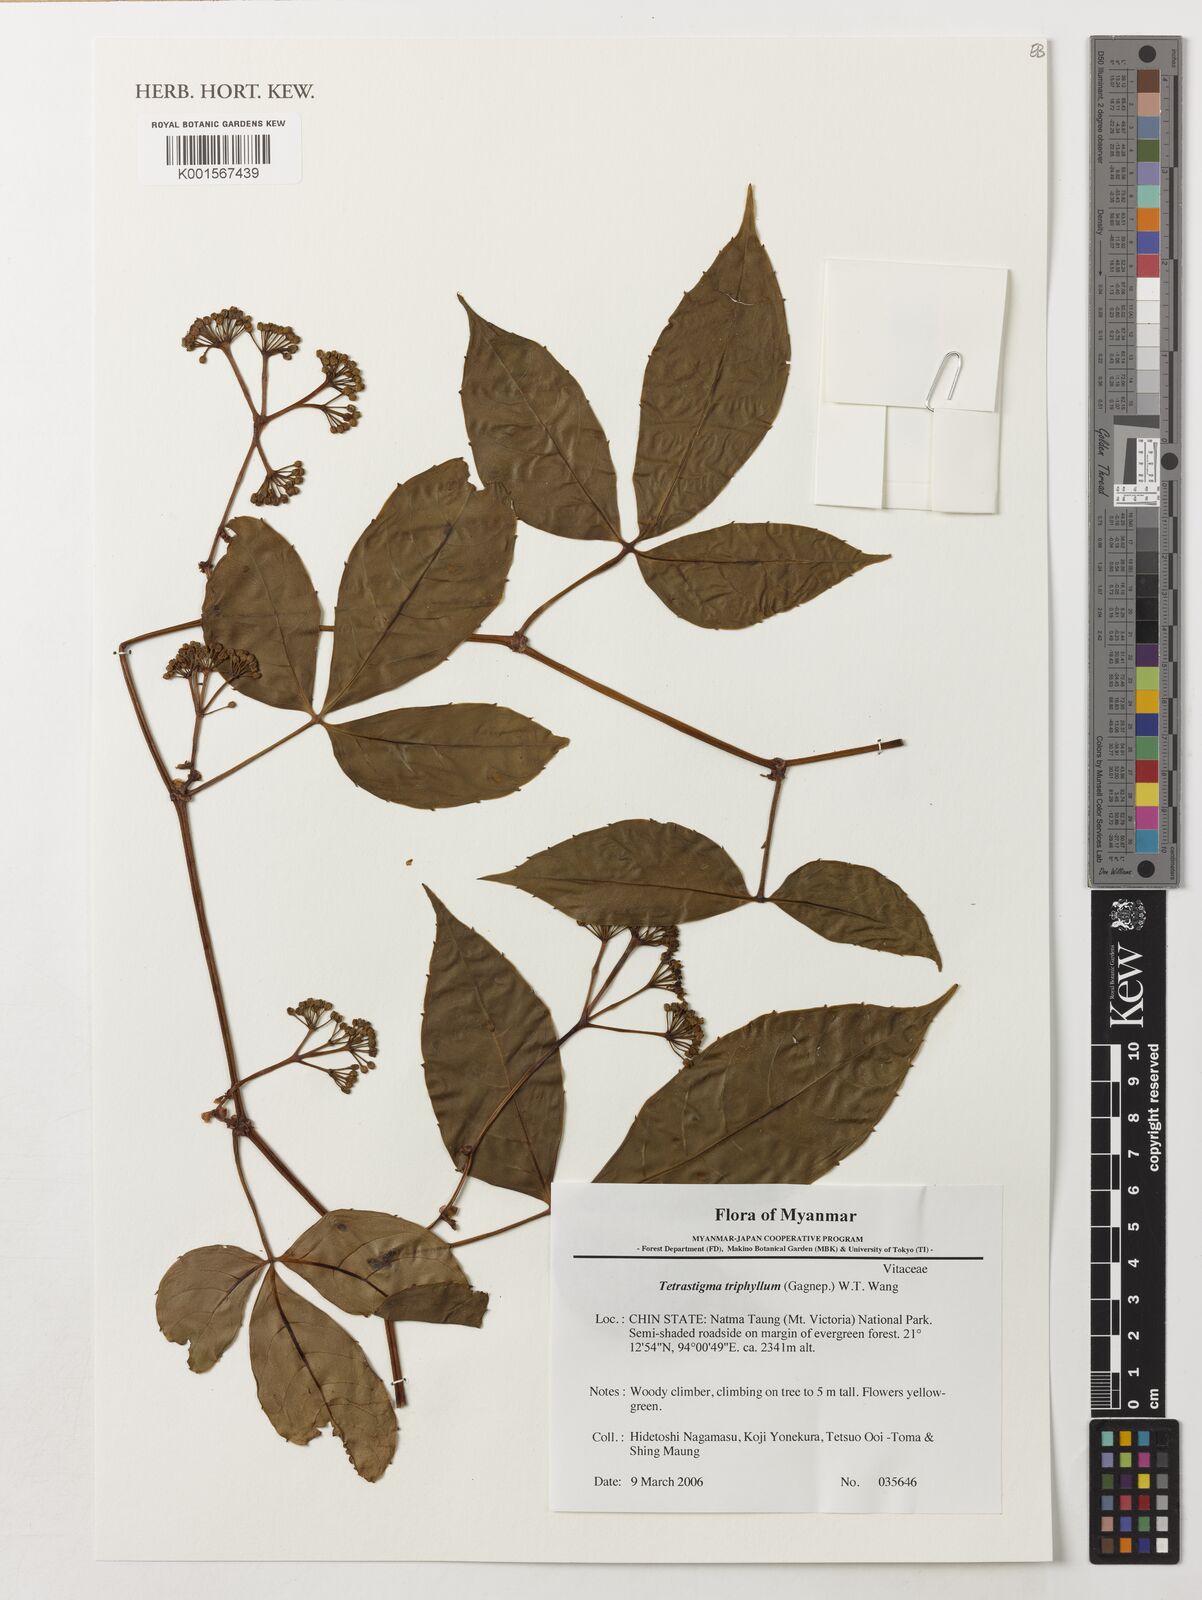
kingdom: Plantae
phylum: Tracheophyta
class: Magnoliopsida
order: Vitales
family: Vitaceae
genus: Tetrastigma
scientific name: Tetrastigma triphyllum
